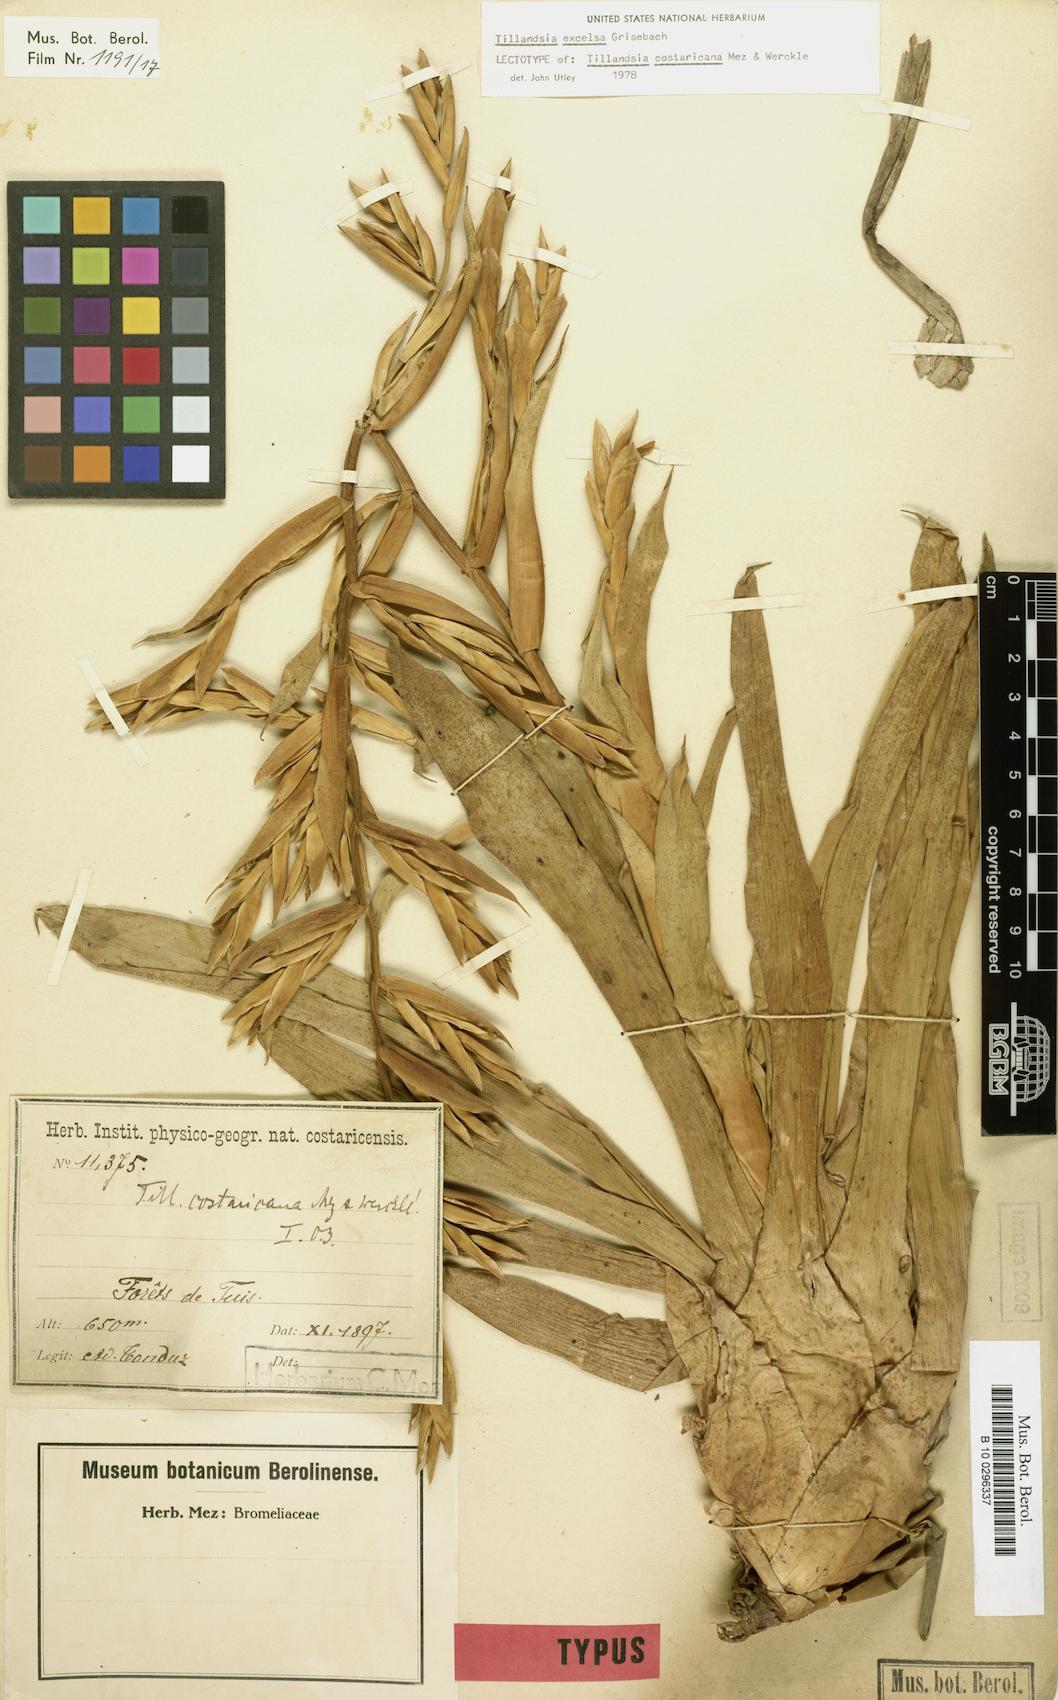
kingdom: Plantae
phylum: Tracheophyta
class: Liliopsida
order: Poales
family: Bromeliaceae
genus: Tillandsia
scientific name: Tillandsia excelsa
